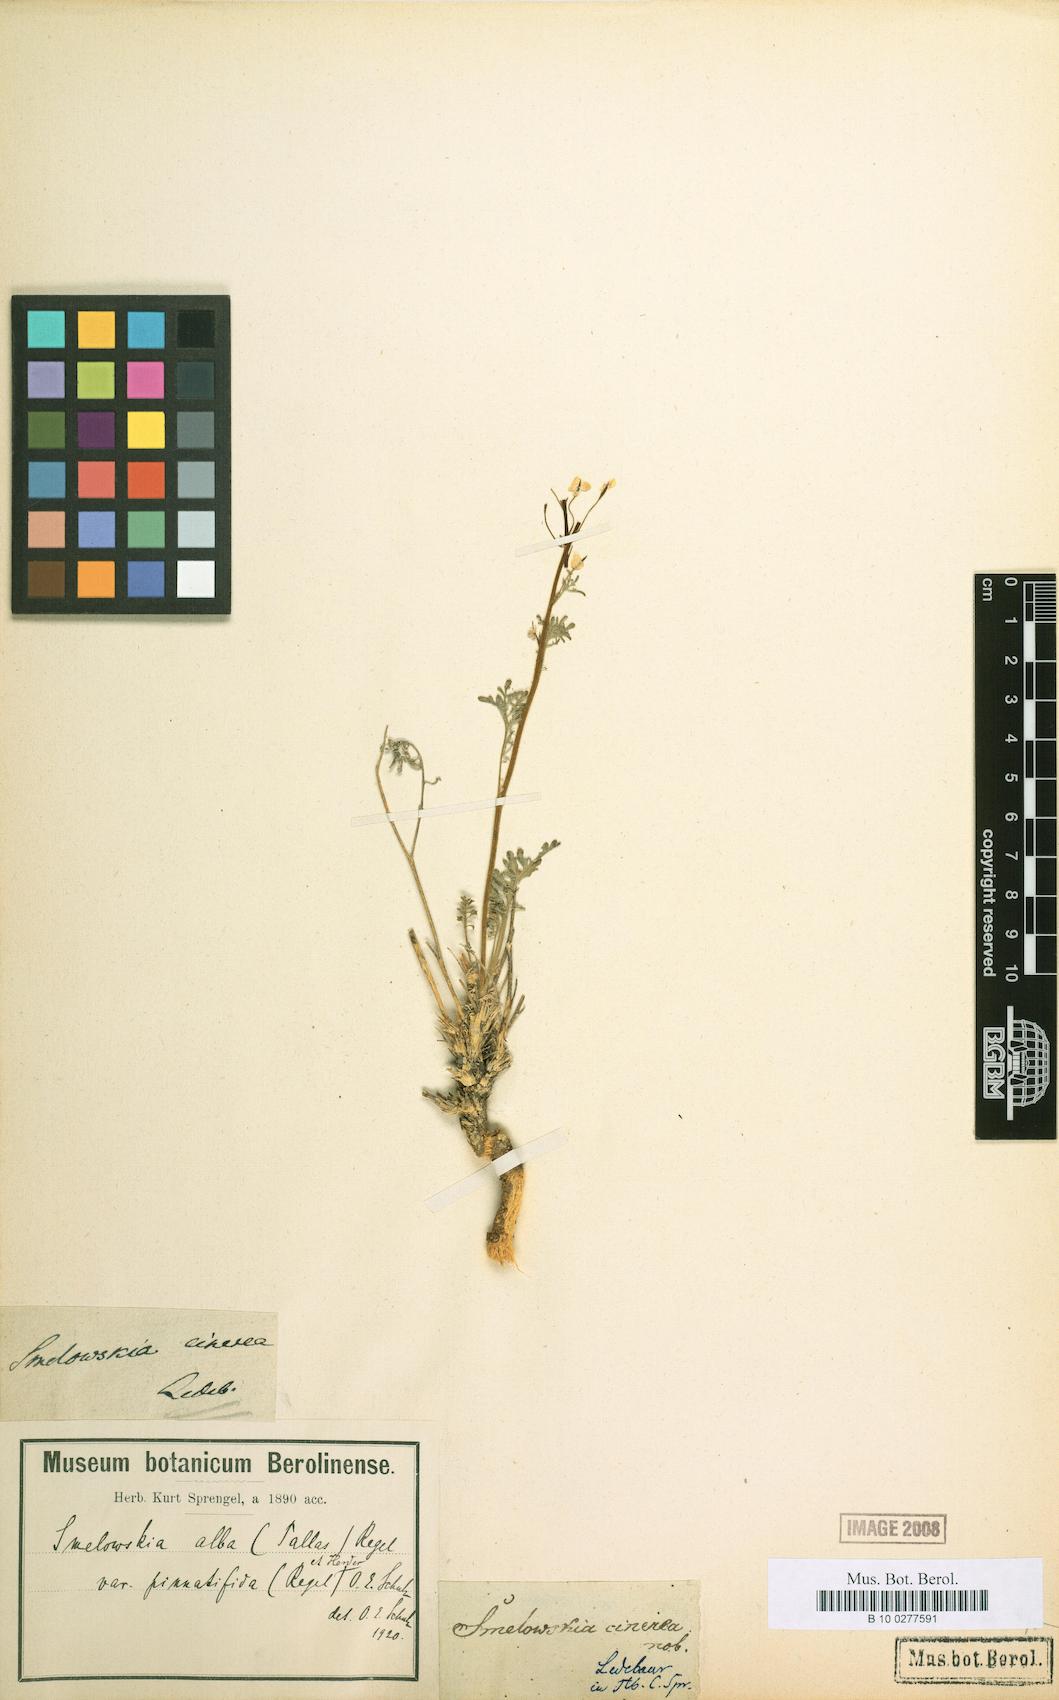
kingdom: Plantae
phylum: Tracheophyta
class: Magnoliopsida
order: Brassicales
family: Brassicaceae
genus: Smelowskia
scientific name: Smelowskia alba
